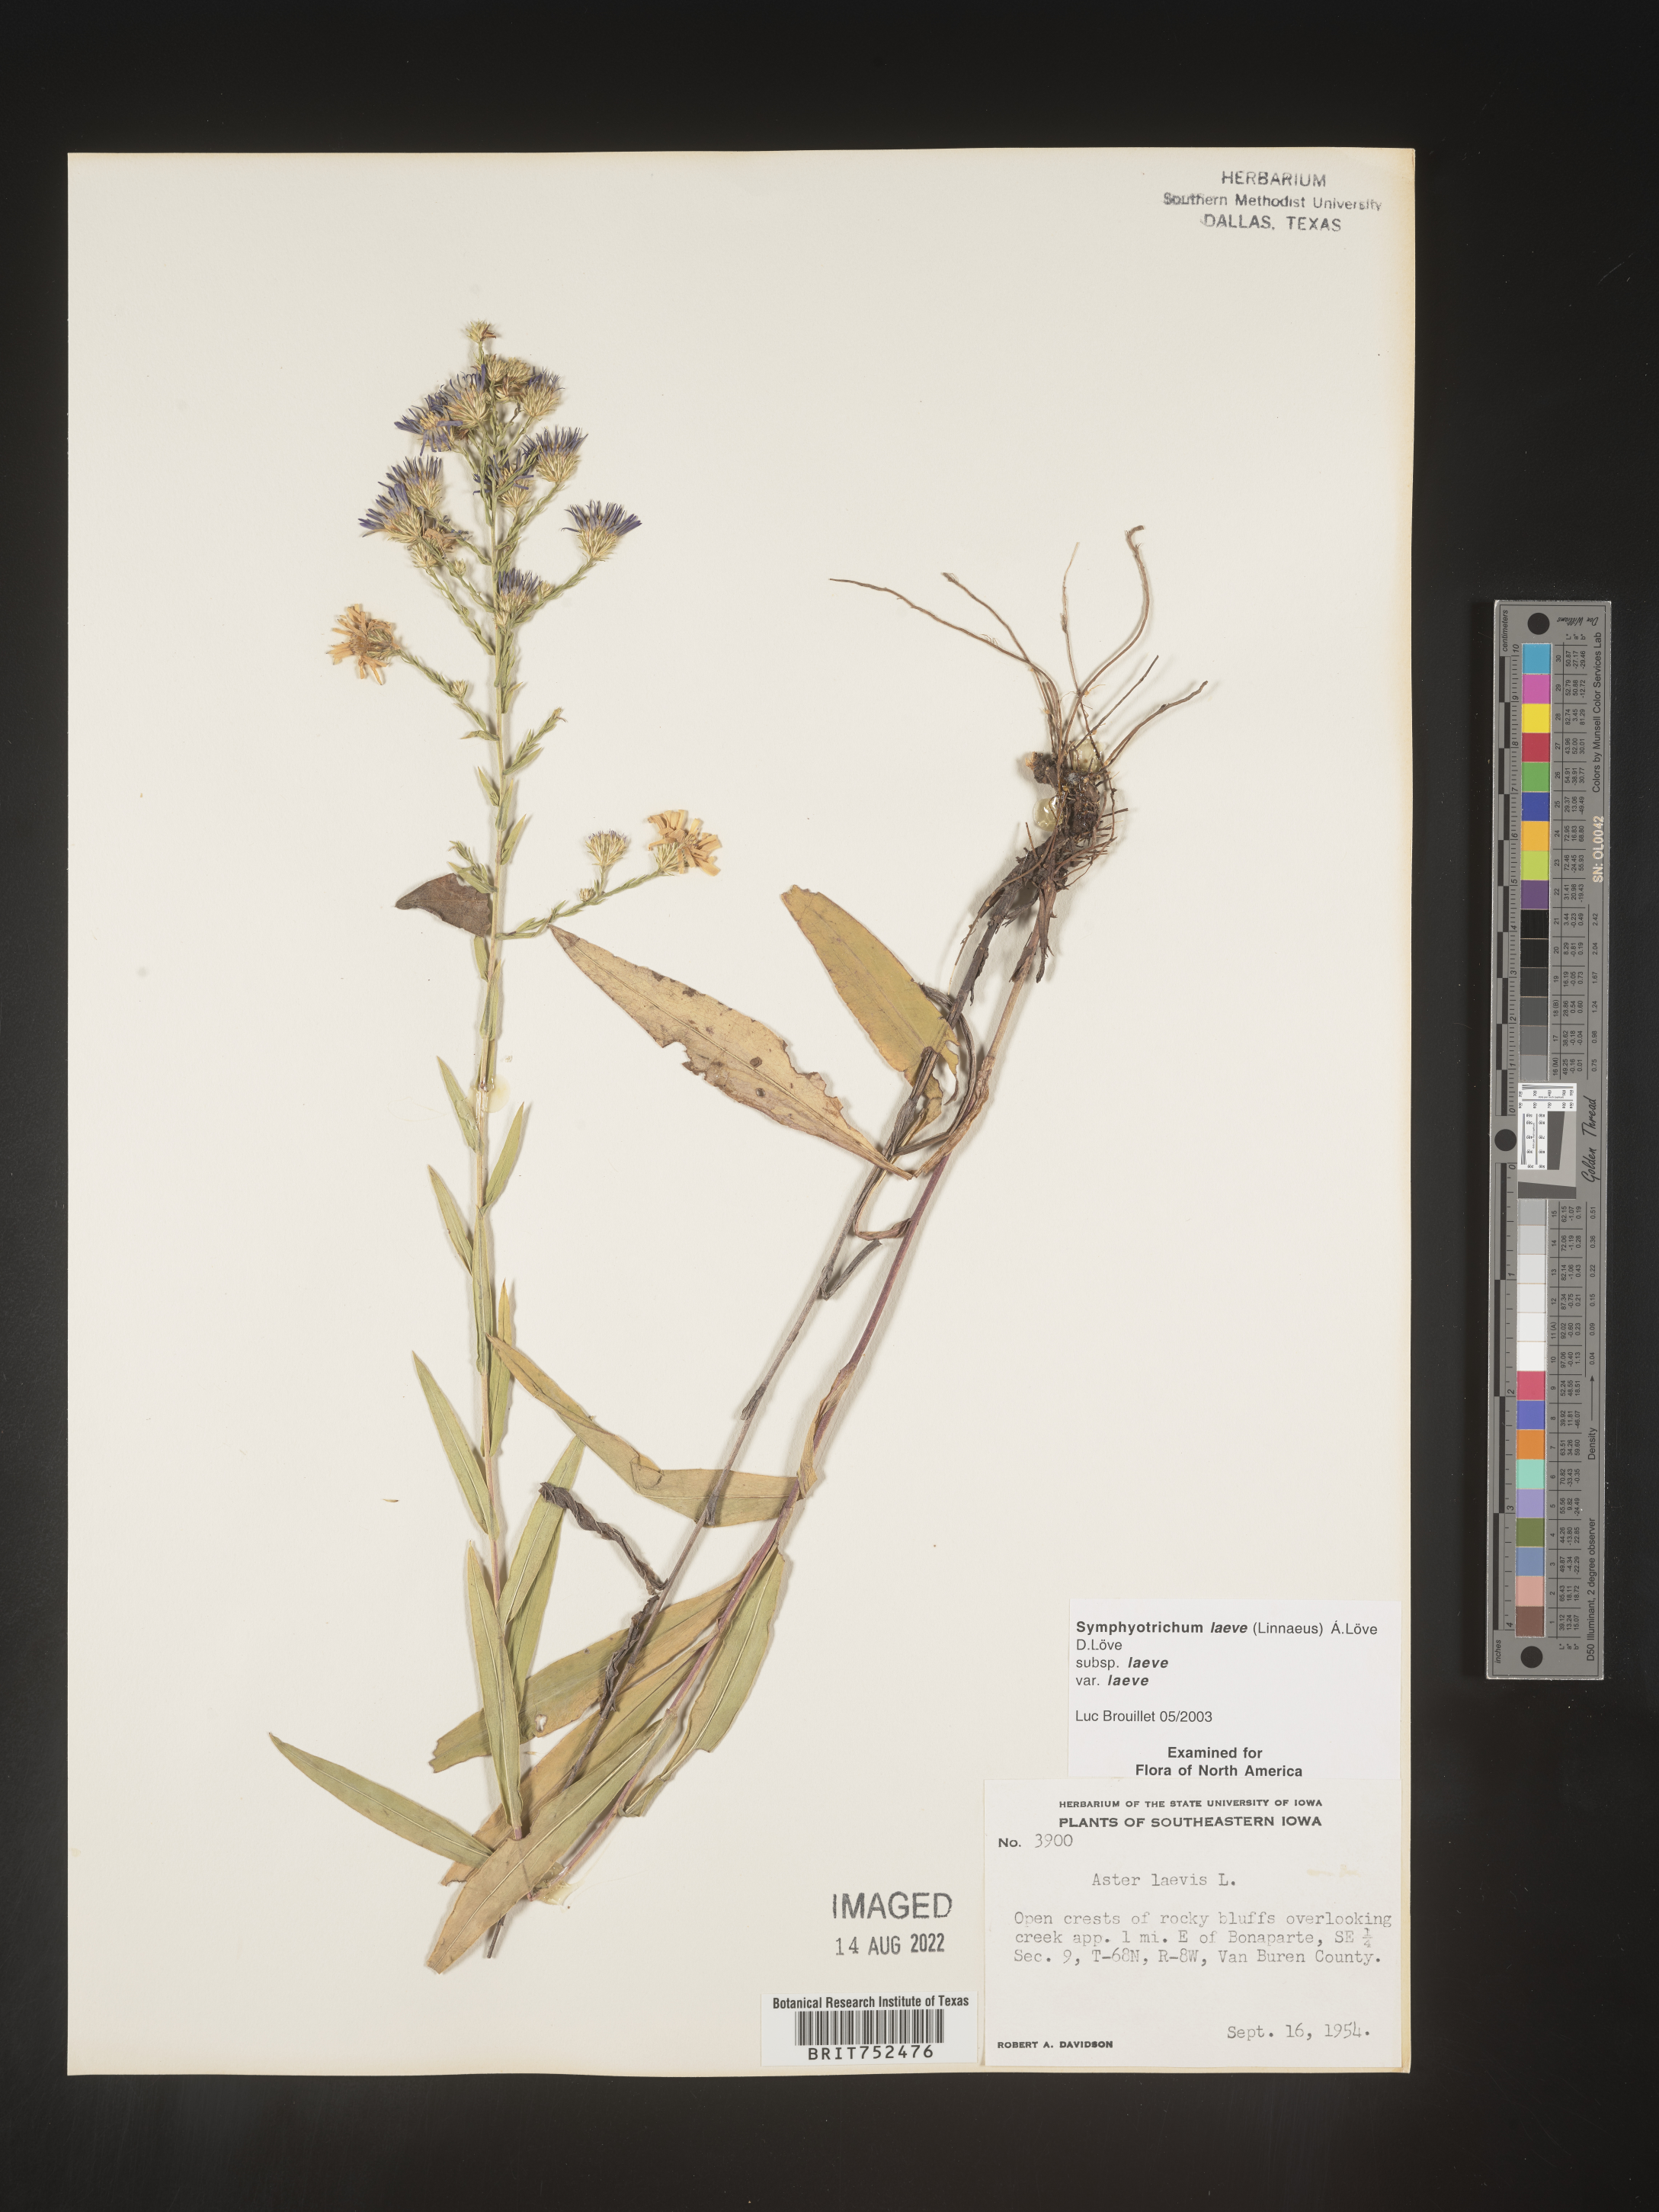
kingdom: Plantae
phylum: Tracheophyta
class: Magnoliopsida
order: Asterales
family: Asteraceae
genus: Symphyotrichum
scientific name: Symphyotrichum laeve
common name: Glaucous aster
